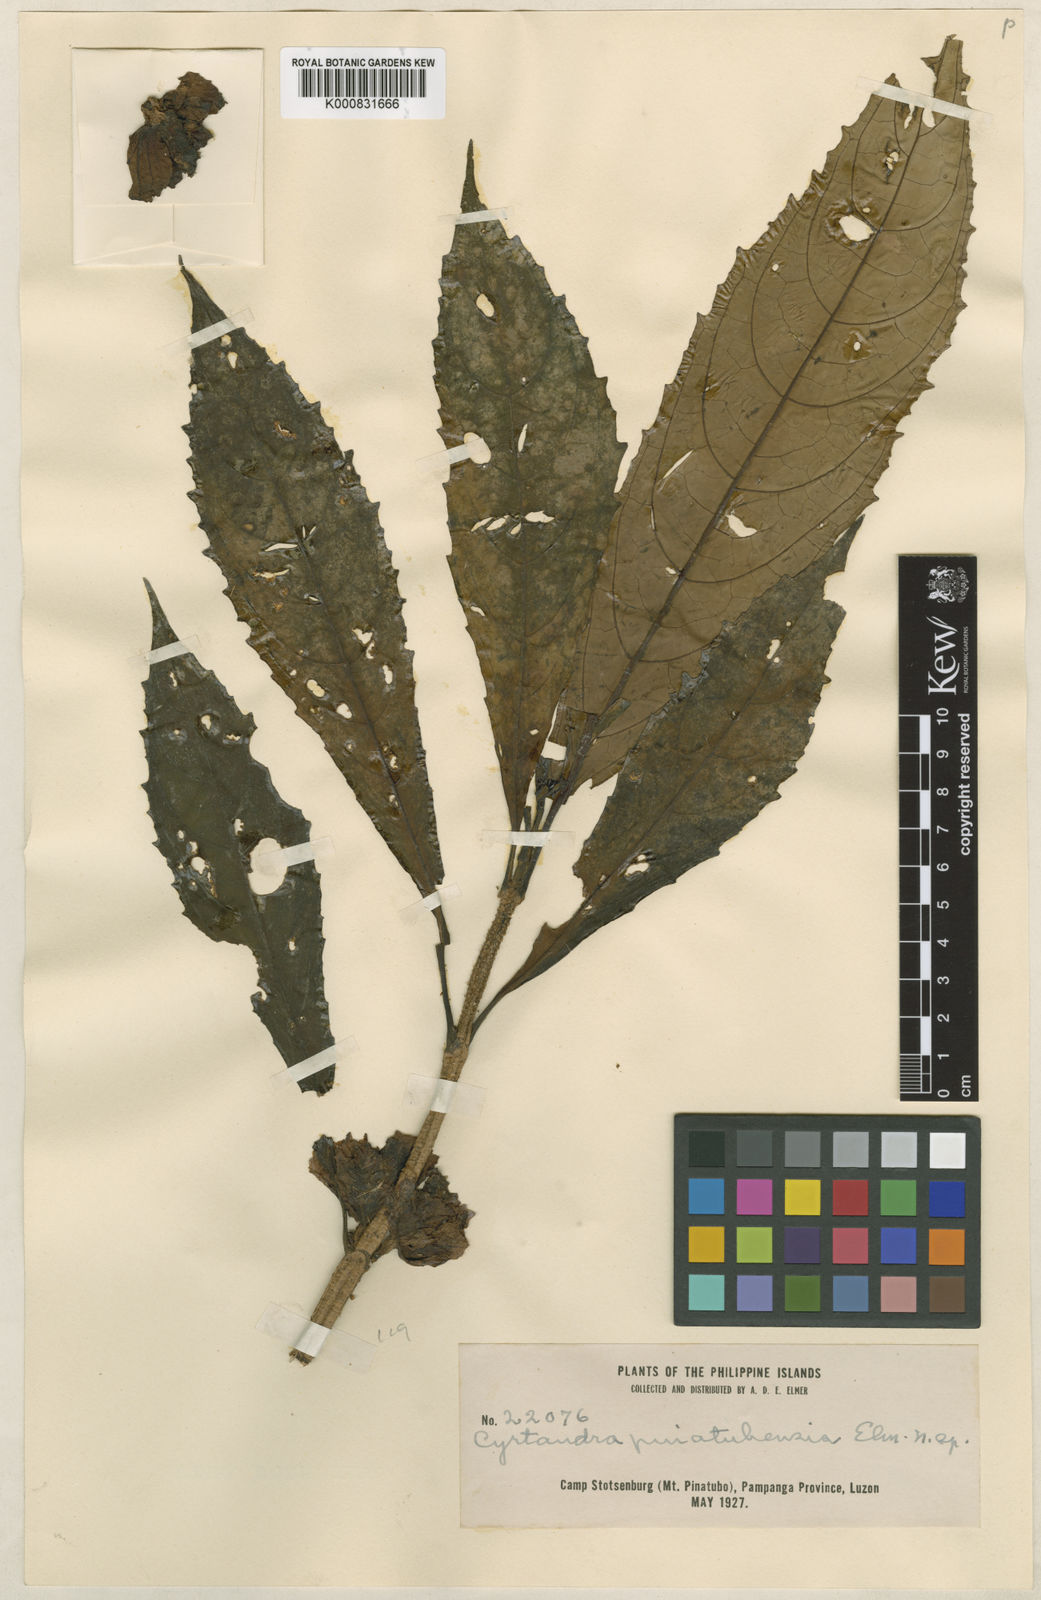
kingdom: Plantae
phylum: Tracheophyta
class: Magnoliopsida
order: Lamiales
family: Gesneriaceae
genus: Cyrtandra
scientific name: Cyrtandra pinatubensis
